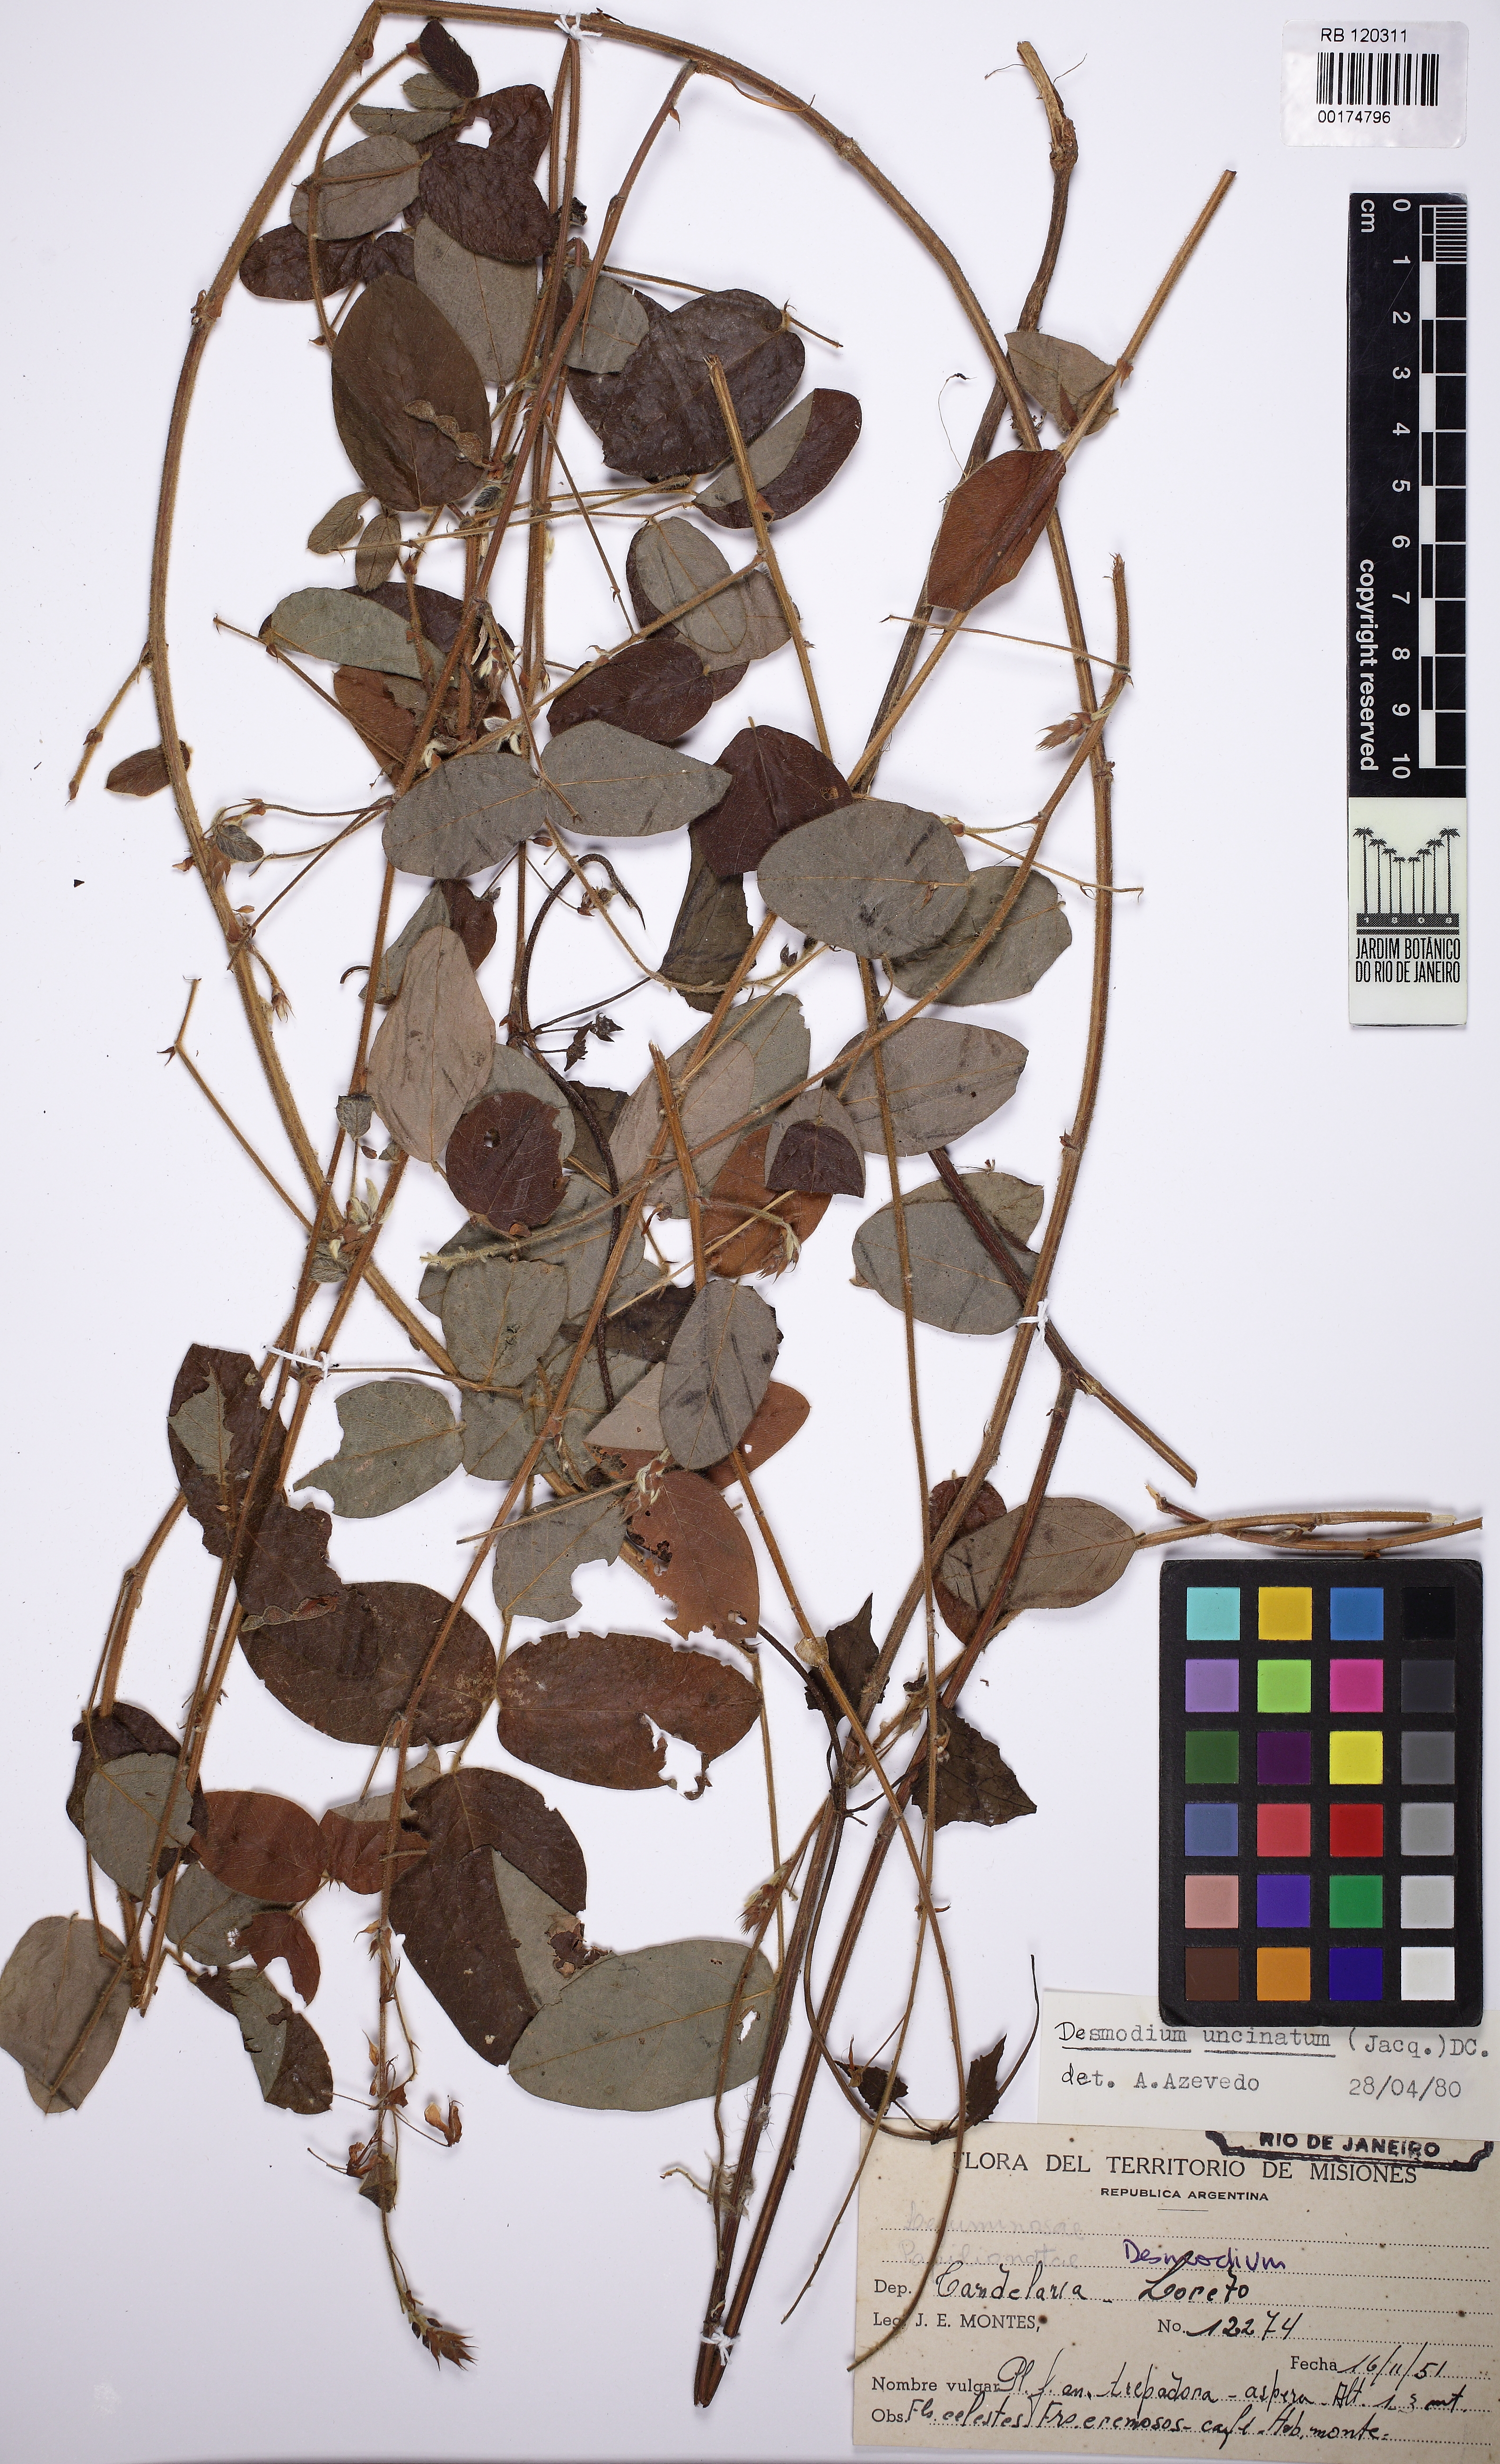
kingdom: Plantae
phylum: Tracheophyta
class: Magnoliopsida
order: Fabales
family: Fabaceae
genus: Desmodium
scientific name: Desmodium uncinatum
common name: Silverleaf desmodium
